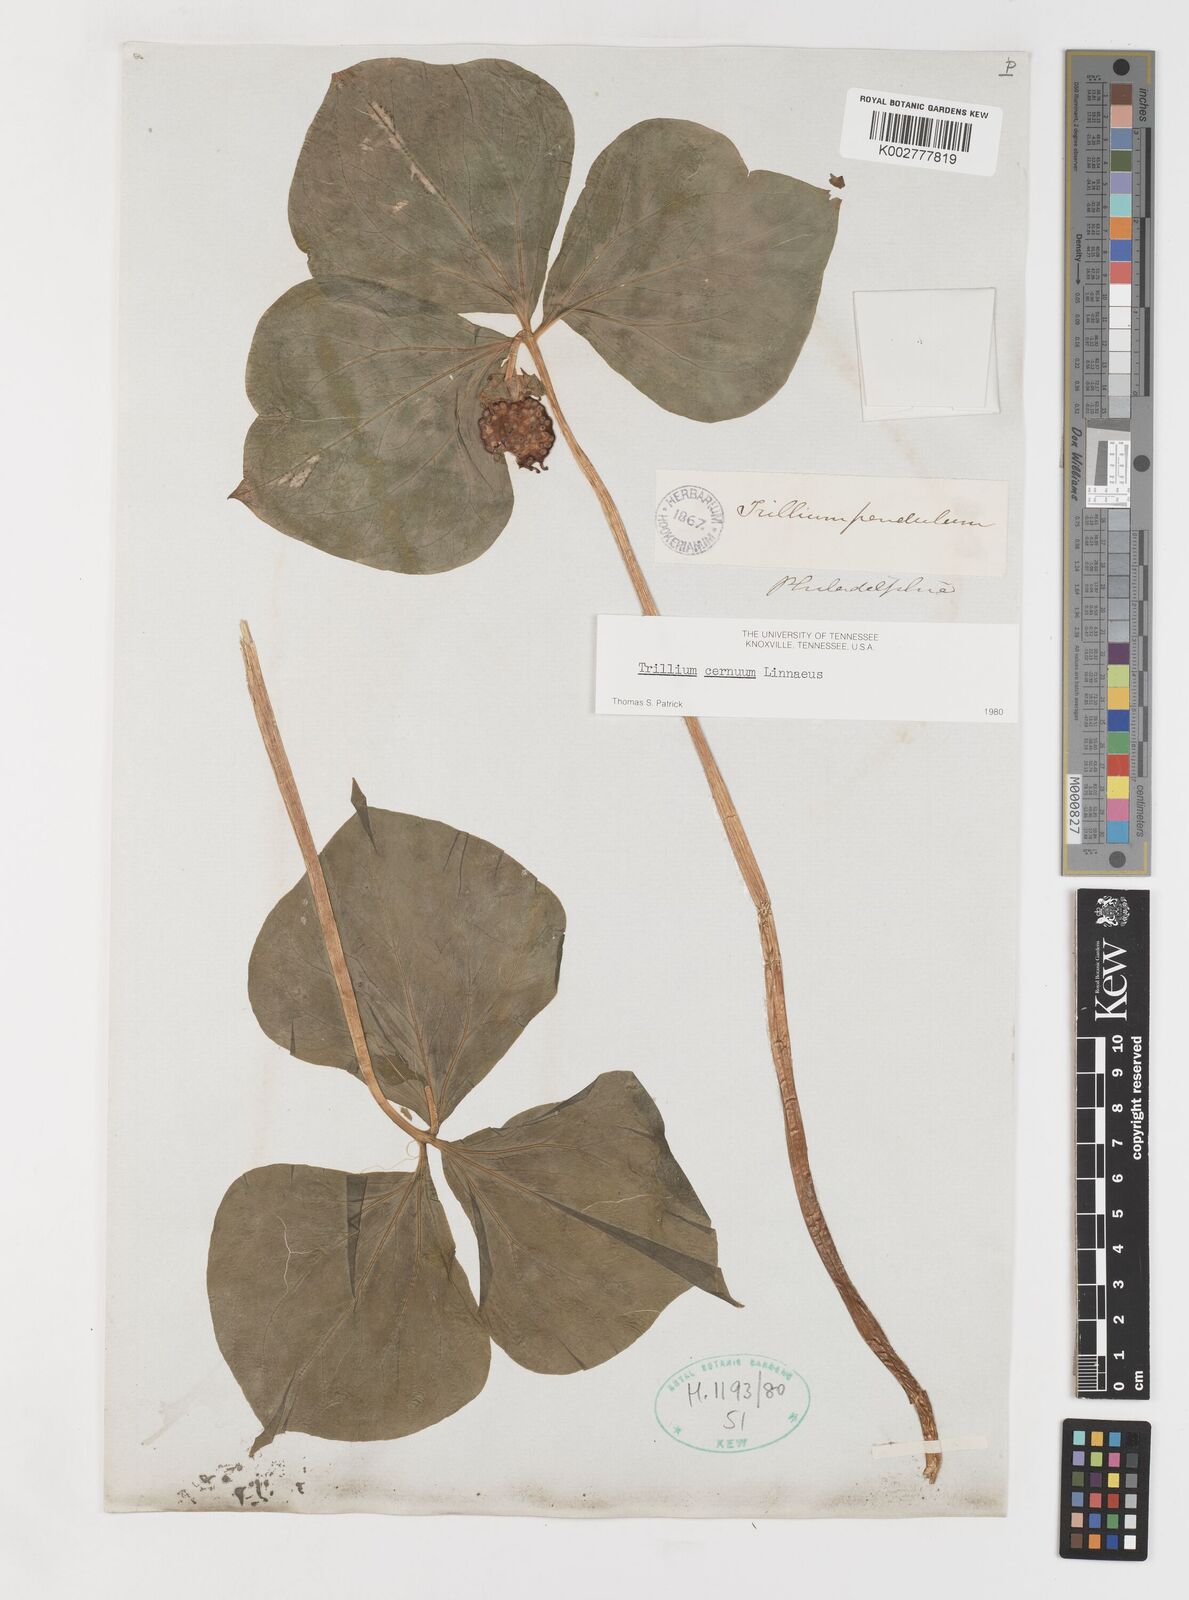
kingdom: Plantae
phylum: Tracheophyta
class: Liliopsida
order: Liliales
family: Melanthiaceae
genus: Trillium
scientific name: Trillium cernuum
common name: Nodding trillium
